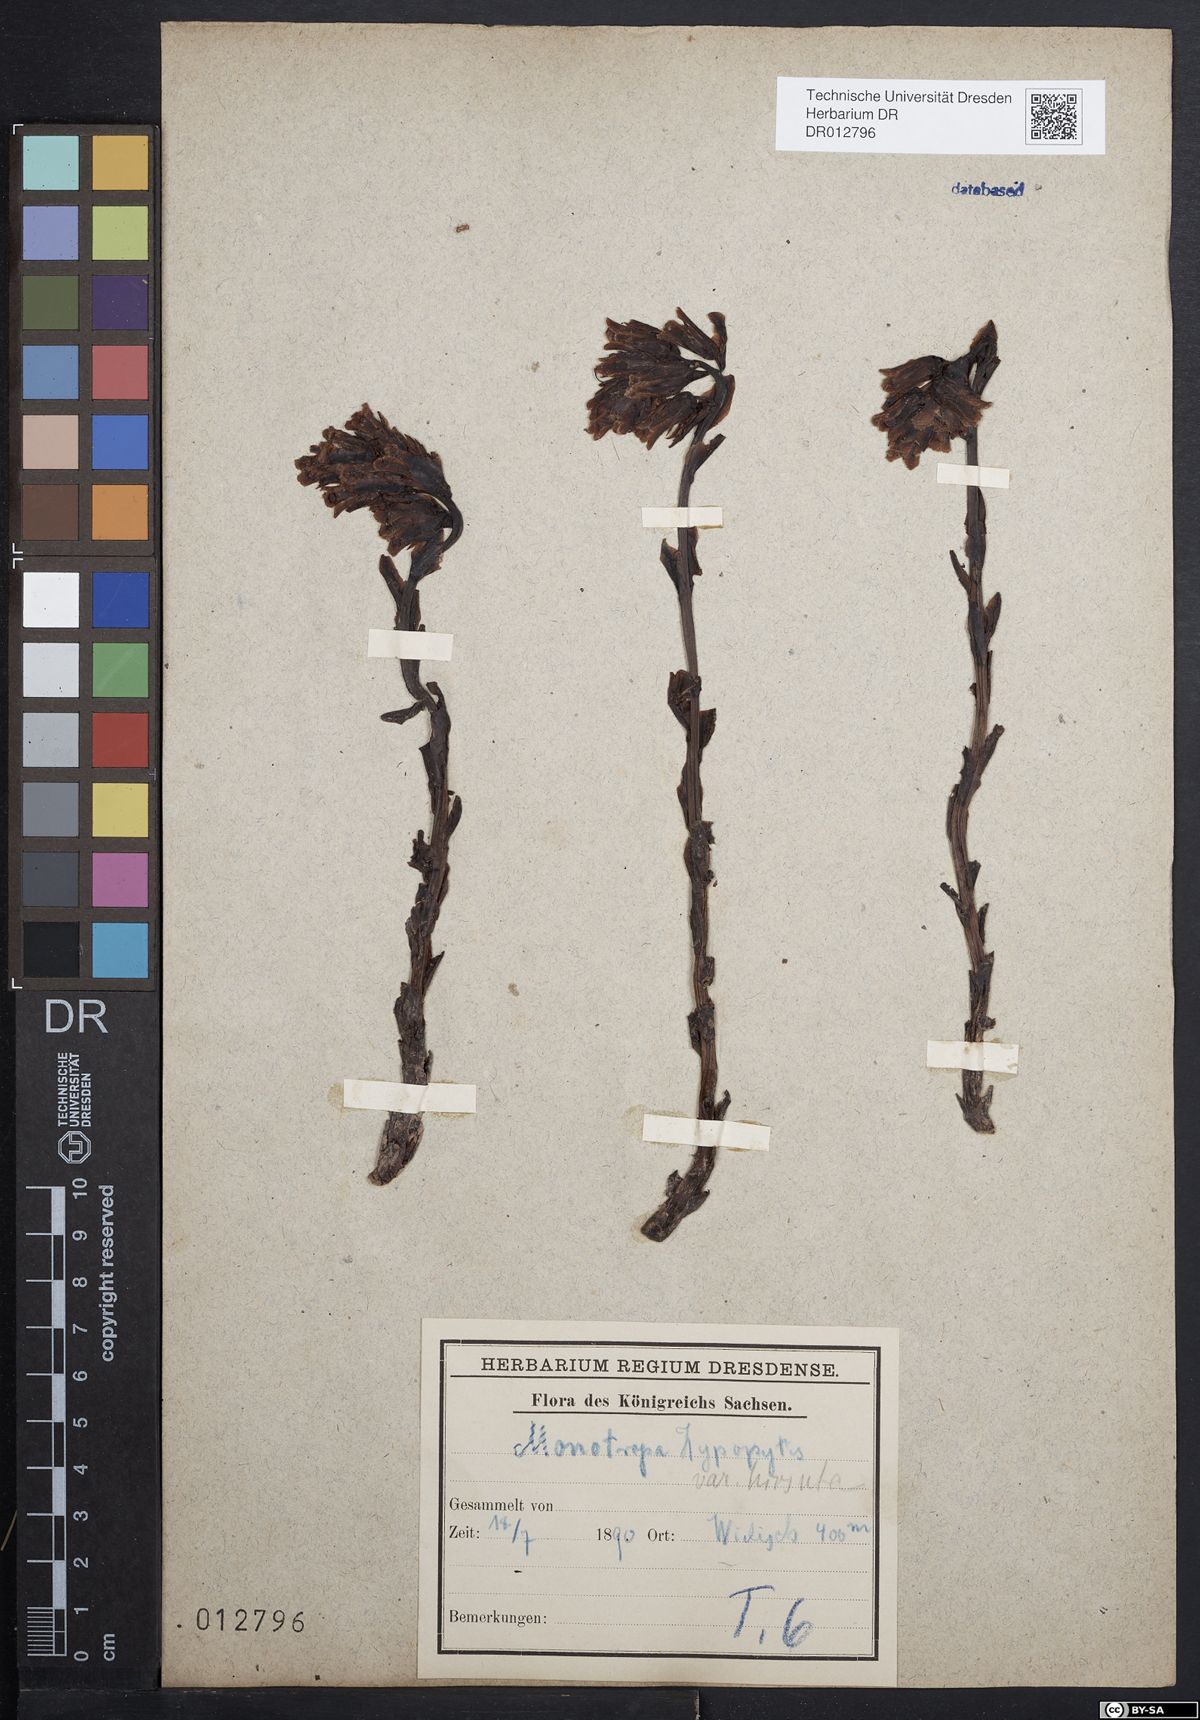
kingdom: Plantae
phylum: Tracheophyta
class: Magnoliopsida
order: Ericales
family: Ericaceae
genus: Hypopitys
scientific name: Hypopitys monotropa
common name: Yellow bird's-nest
